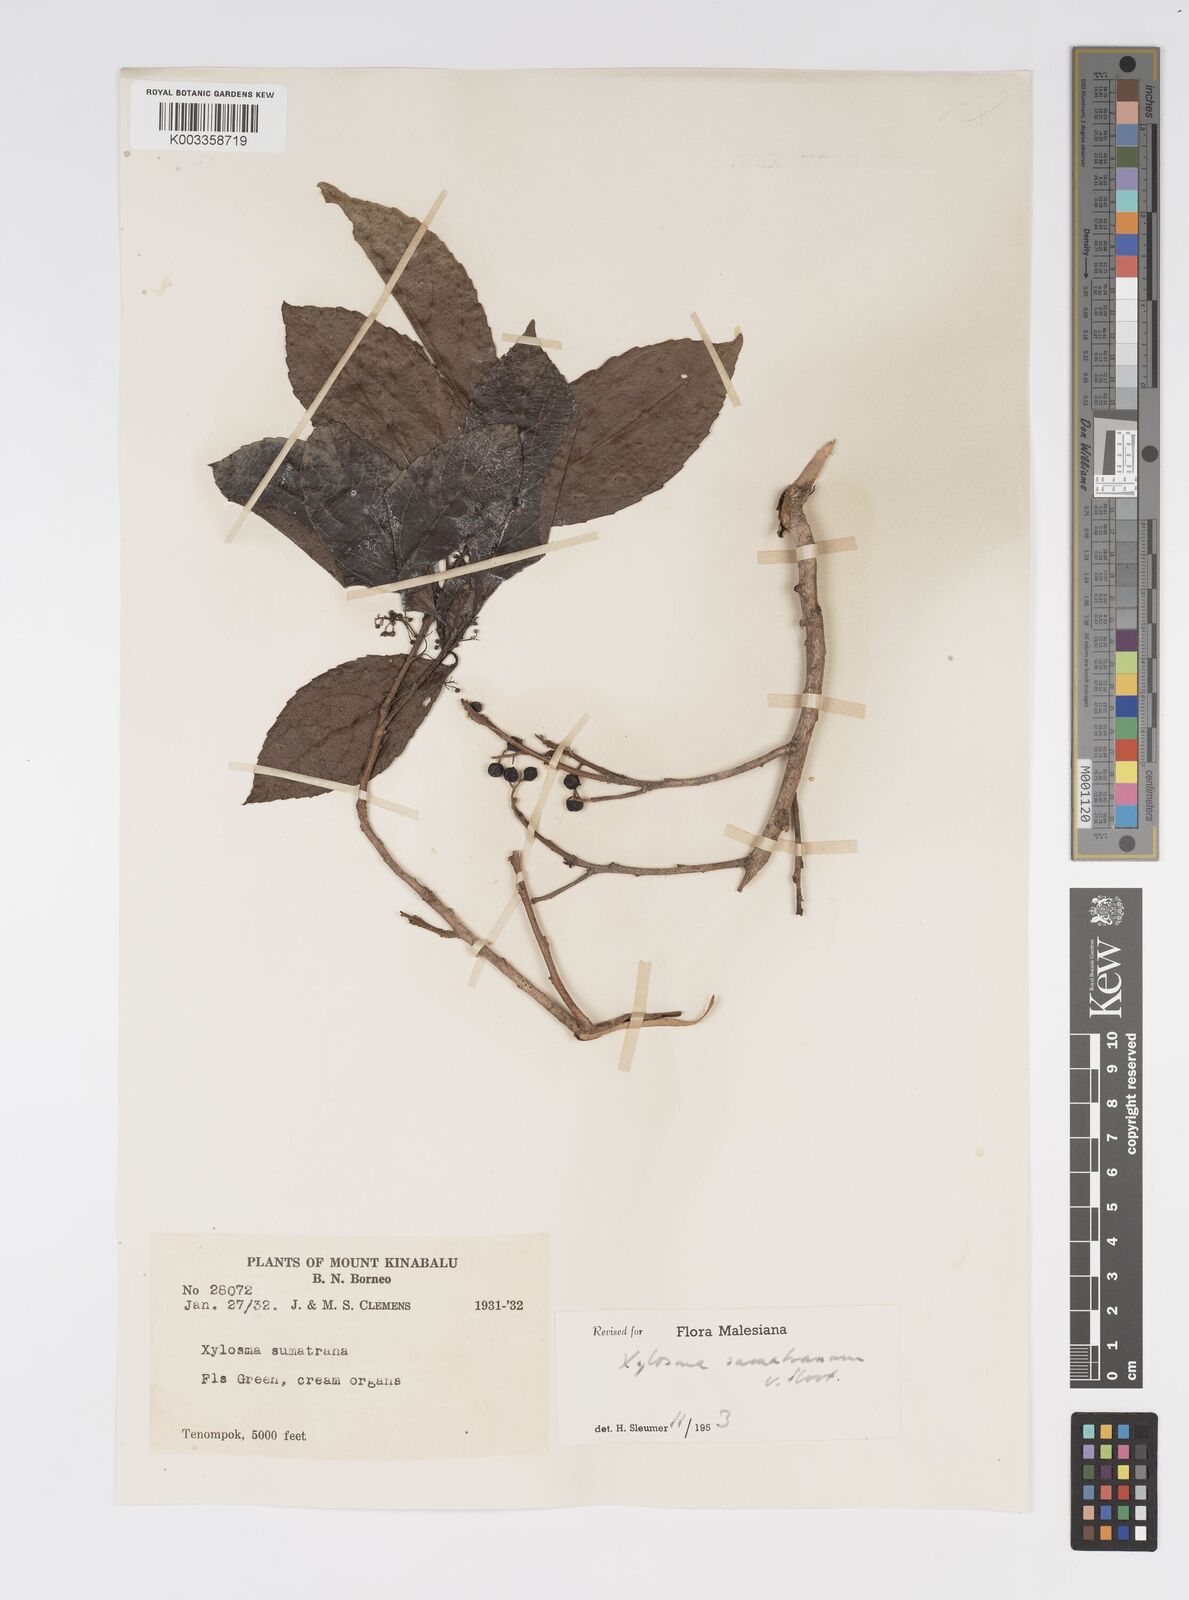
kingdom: Plantae
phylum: Tracheophyta
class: Magnoliopsida
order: Malpighiales
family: Salicaceae
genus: Xylosma
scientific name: Xylosma sumatrana
